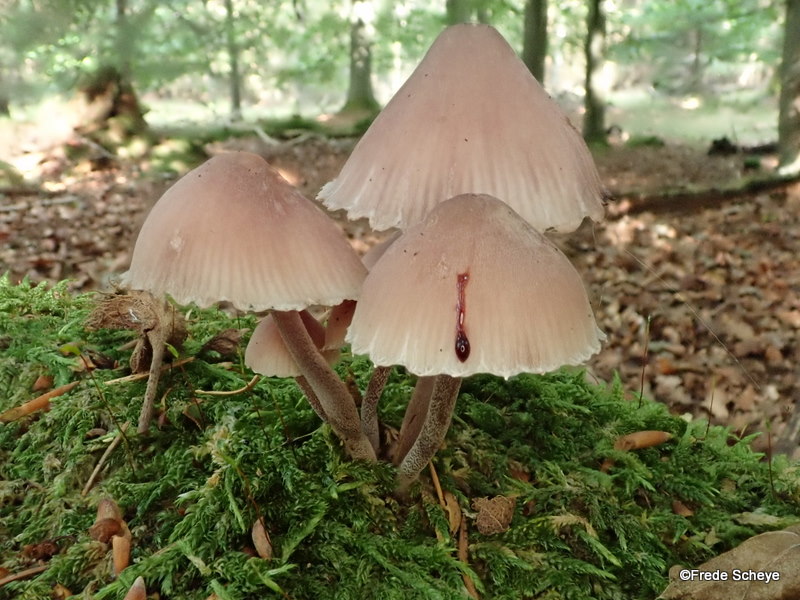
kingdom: Fungi
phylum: Basidiomycota
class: Agaricomycetes
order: Agaricales
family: Mycenaceae
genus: Mycena
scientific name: Mycena haematopus
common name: blødende huesvamp
